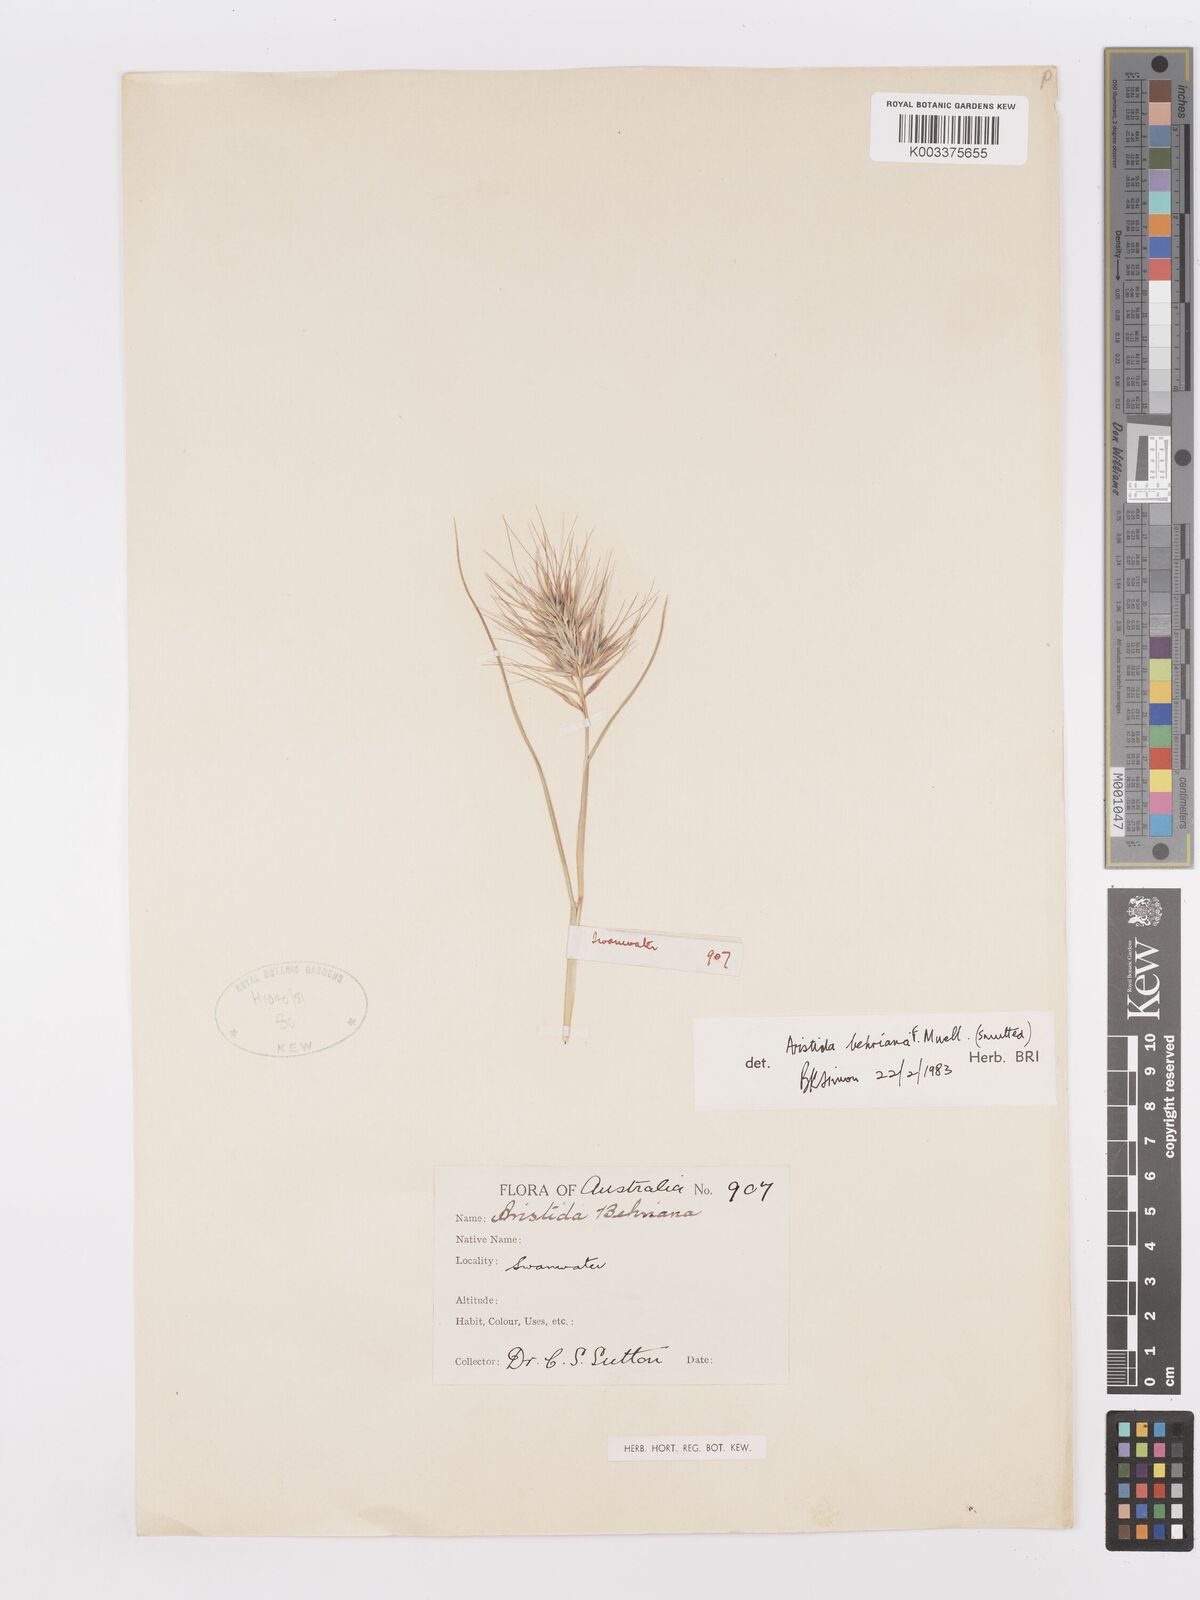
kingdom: Plantae
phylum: Tracheophyta
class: Liliopsida
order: Poales
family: Poaceae
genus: Aristida
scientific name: Aristida behriana
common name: Long-awn wire grass
